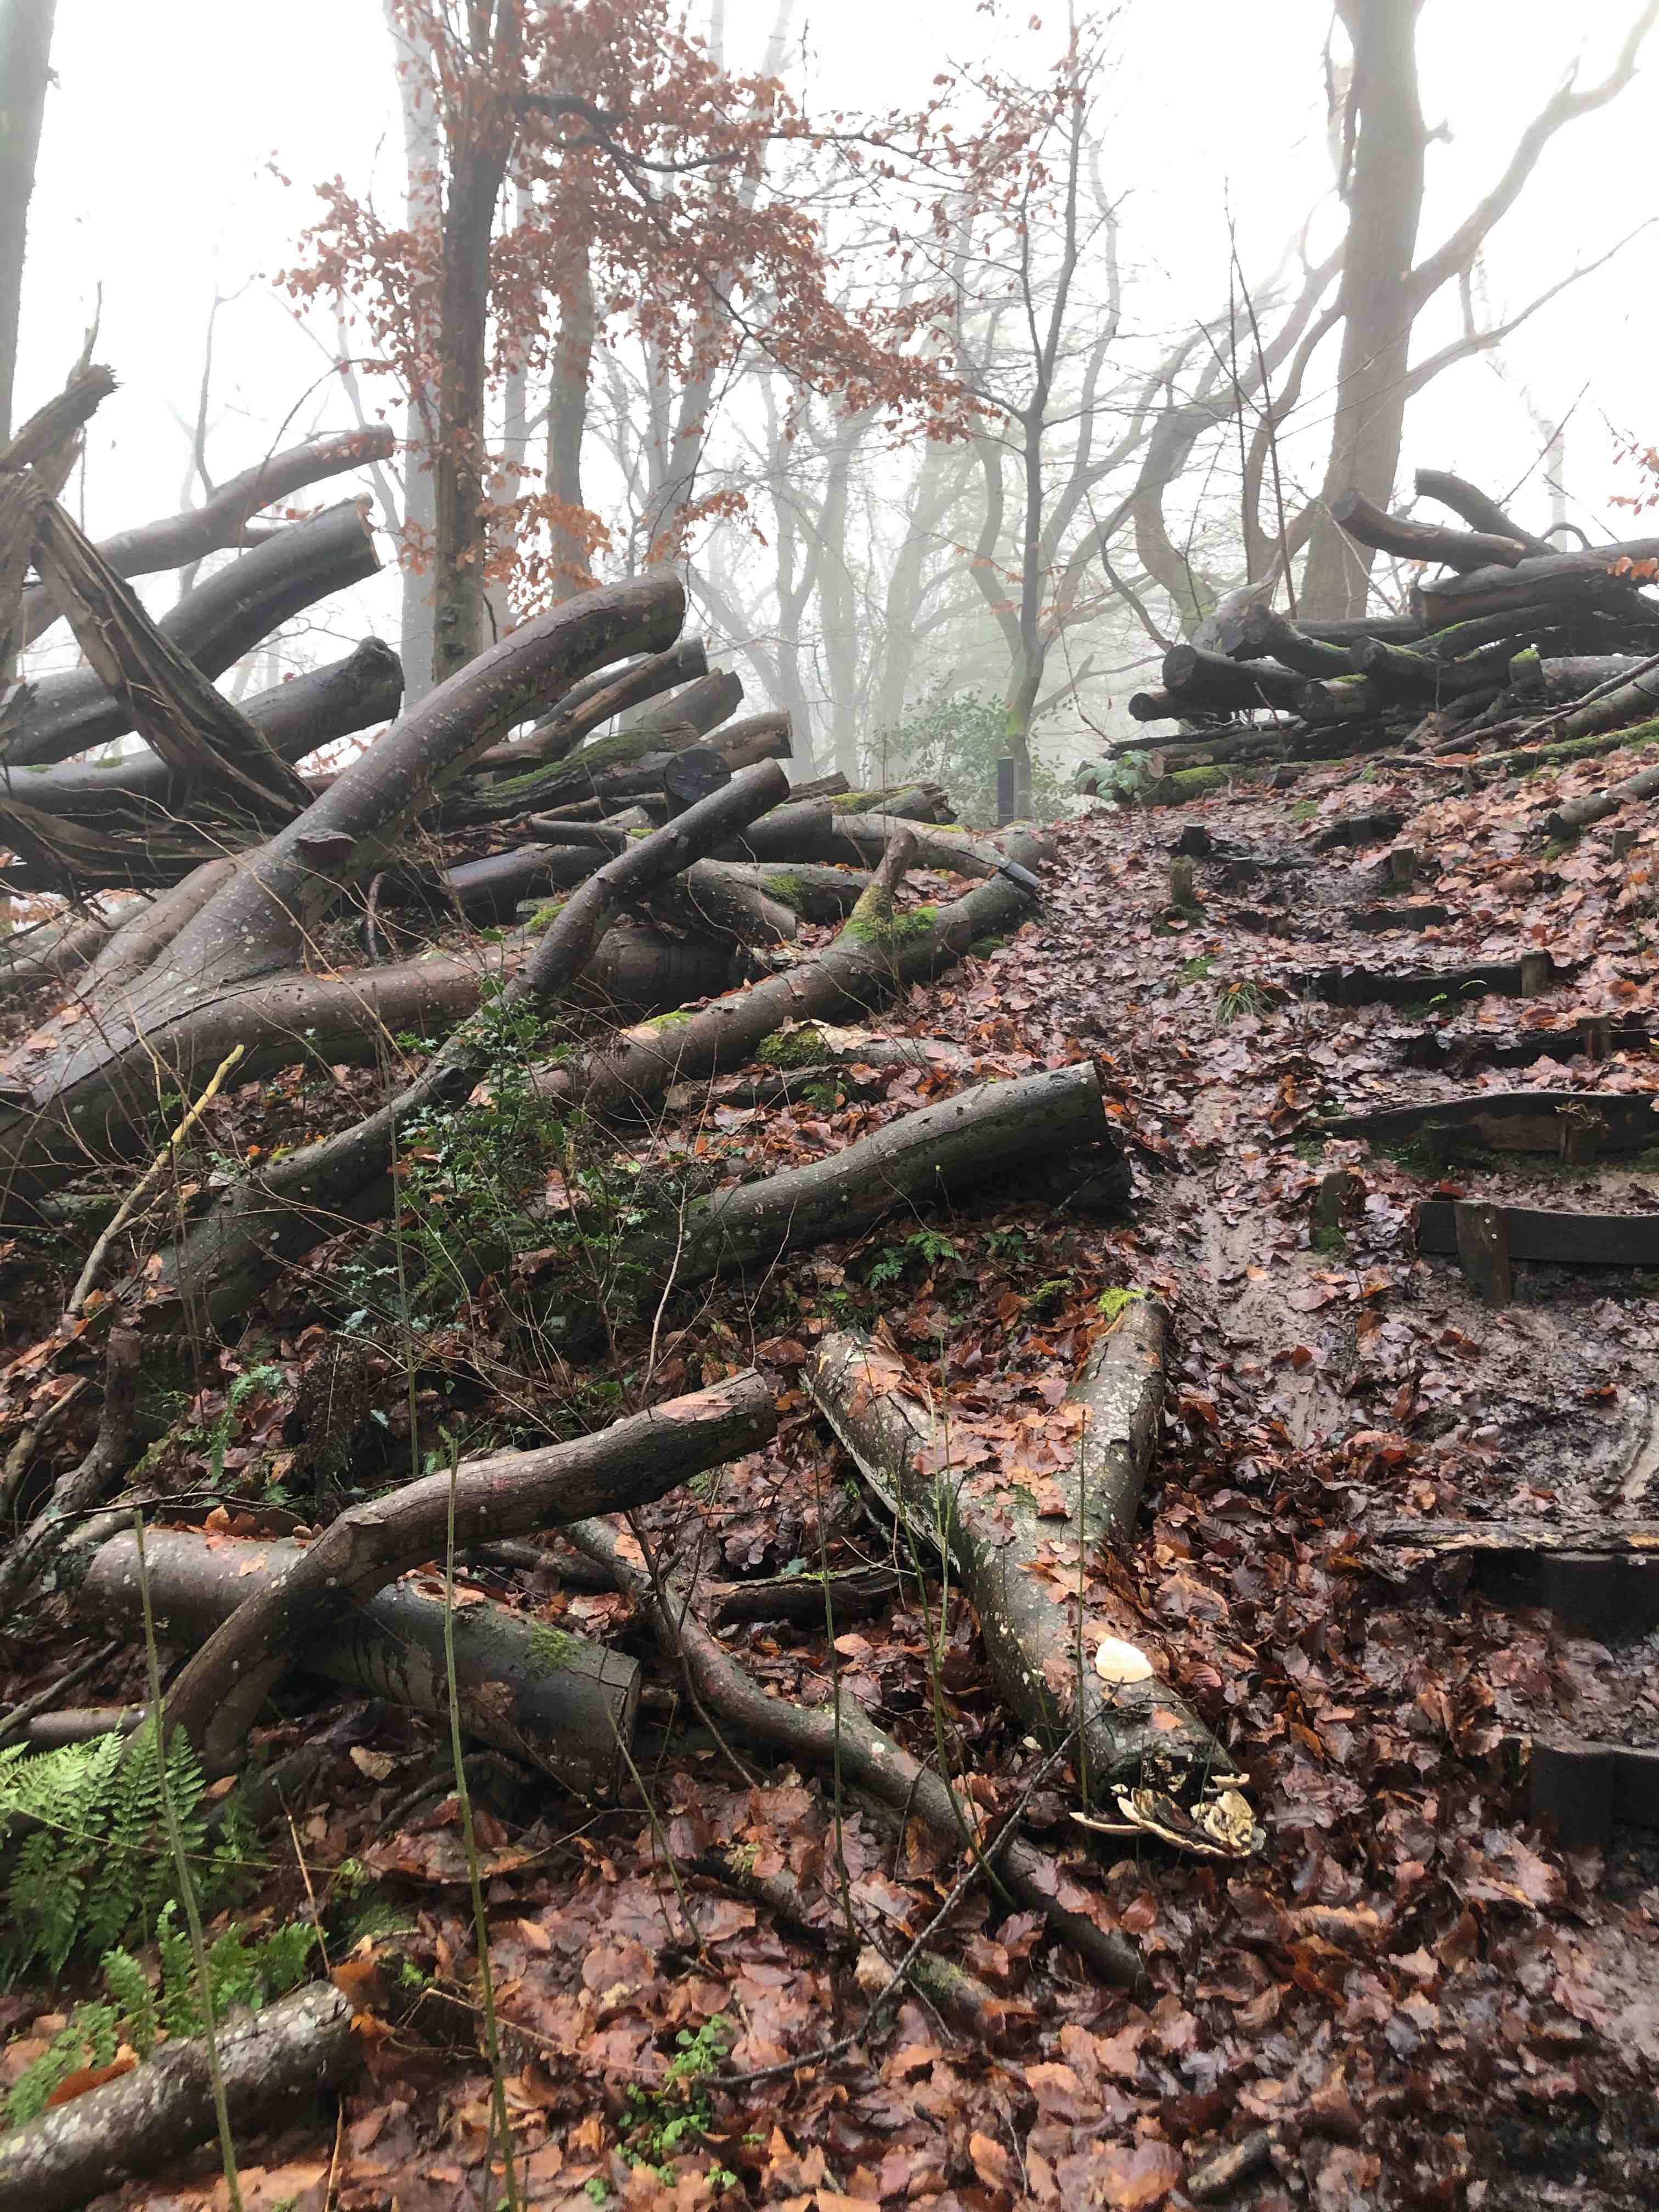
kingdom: Fungi
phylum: Basidiomycota
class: Agaricomycetes
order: Polyporales
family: Polyporaceae
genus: Trametes
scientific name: Trametes gibbosa
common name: puklet læderporesvamp
